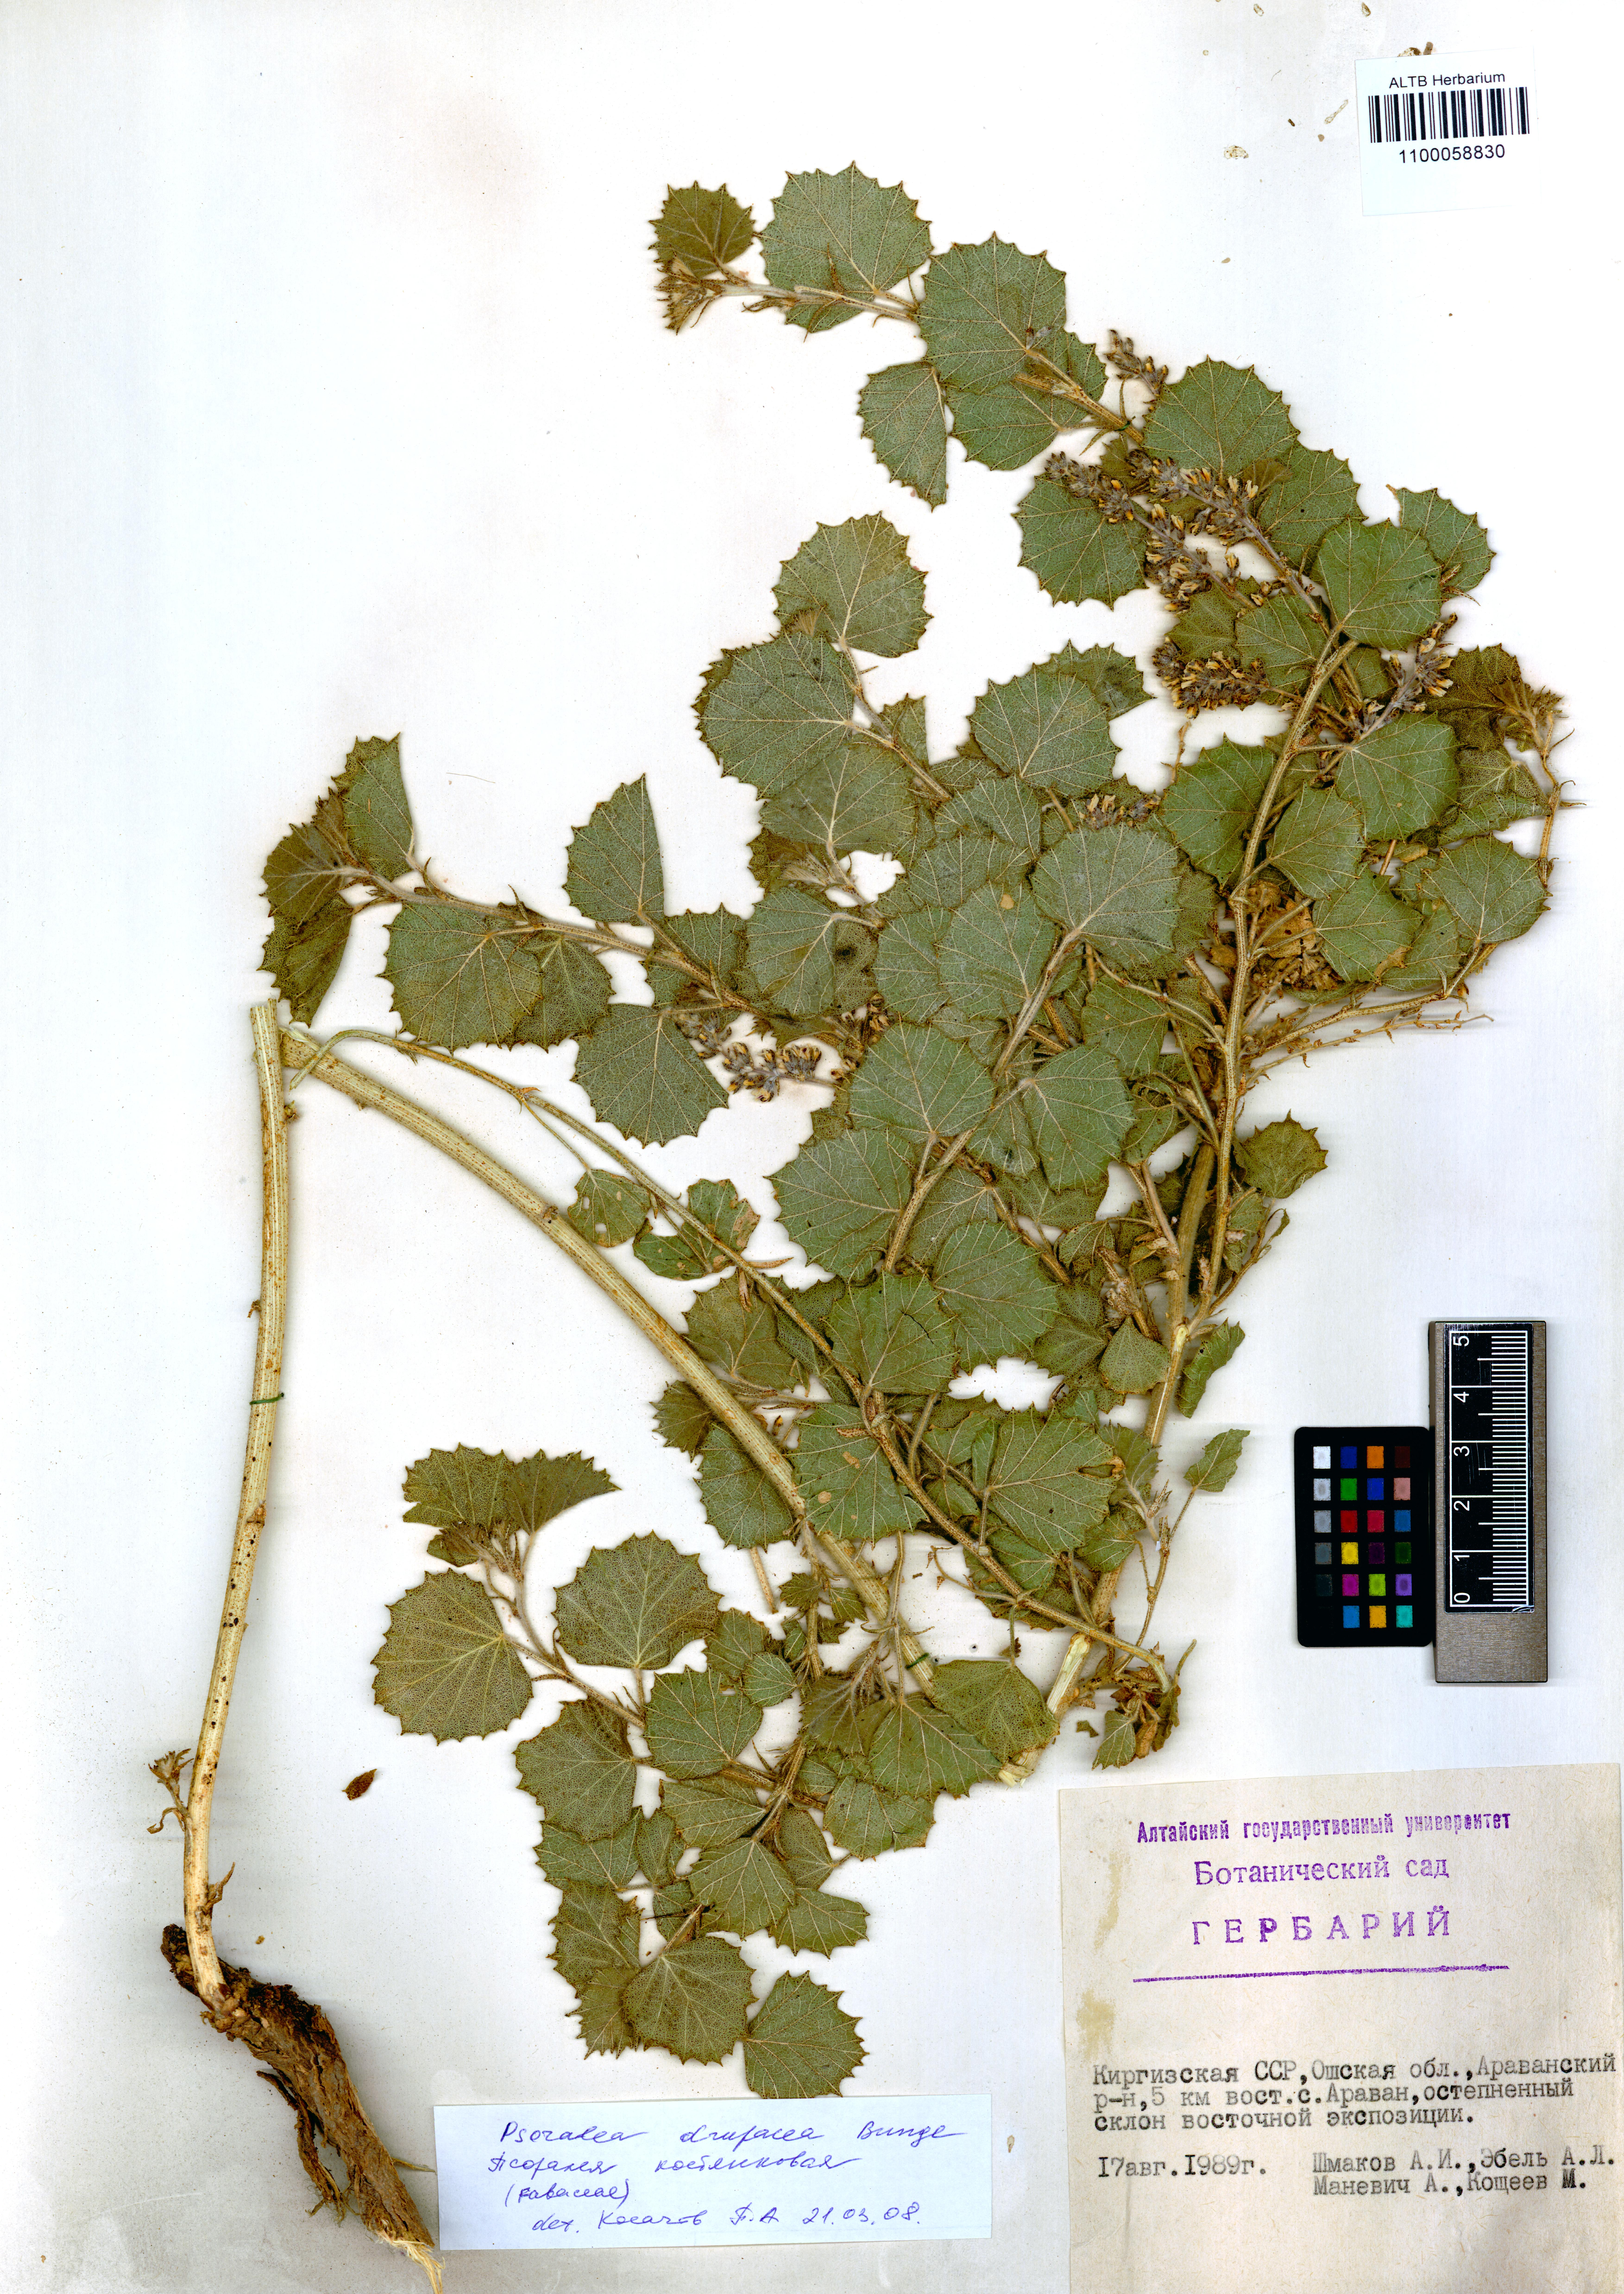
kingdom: Plantae
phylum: Tracheophyta
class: Magnoliopsida
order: Fabales
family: Fabaceae
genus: Cullen
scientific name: Cullen drupaceum
